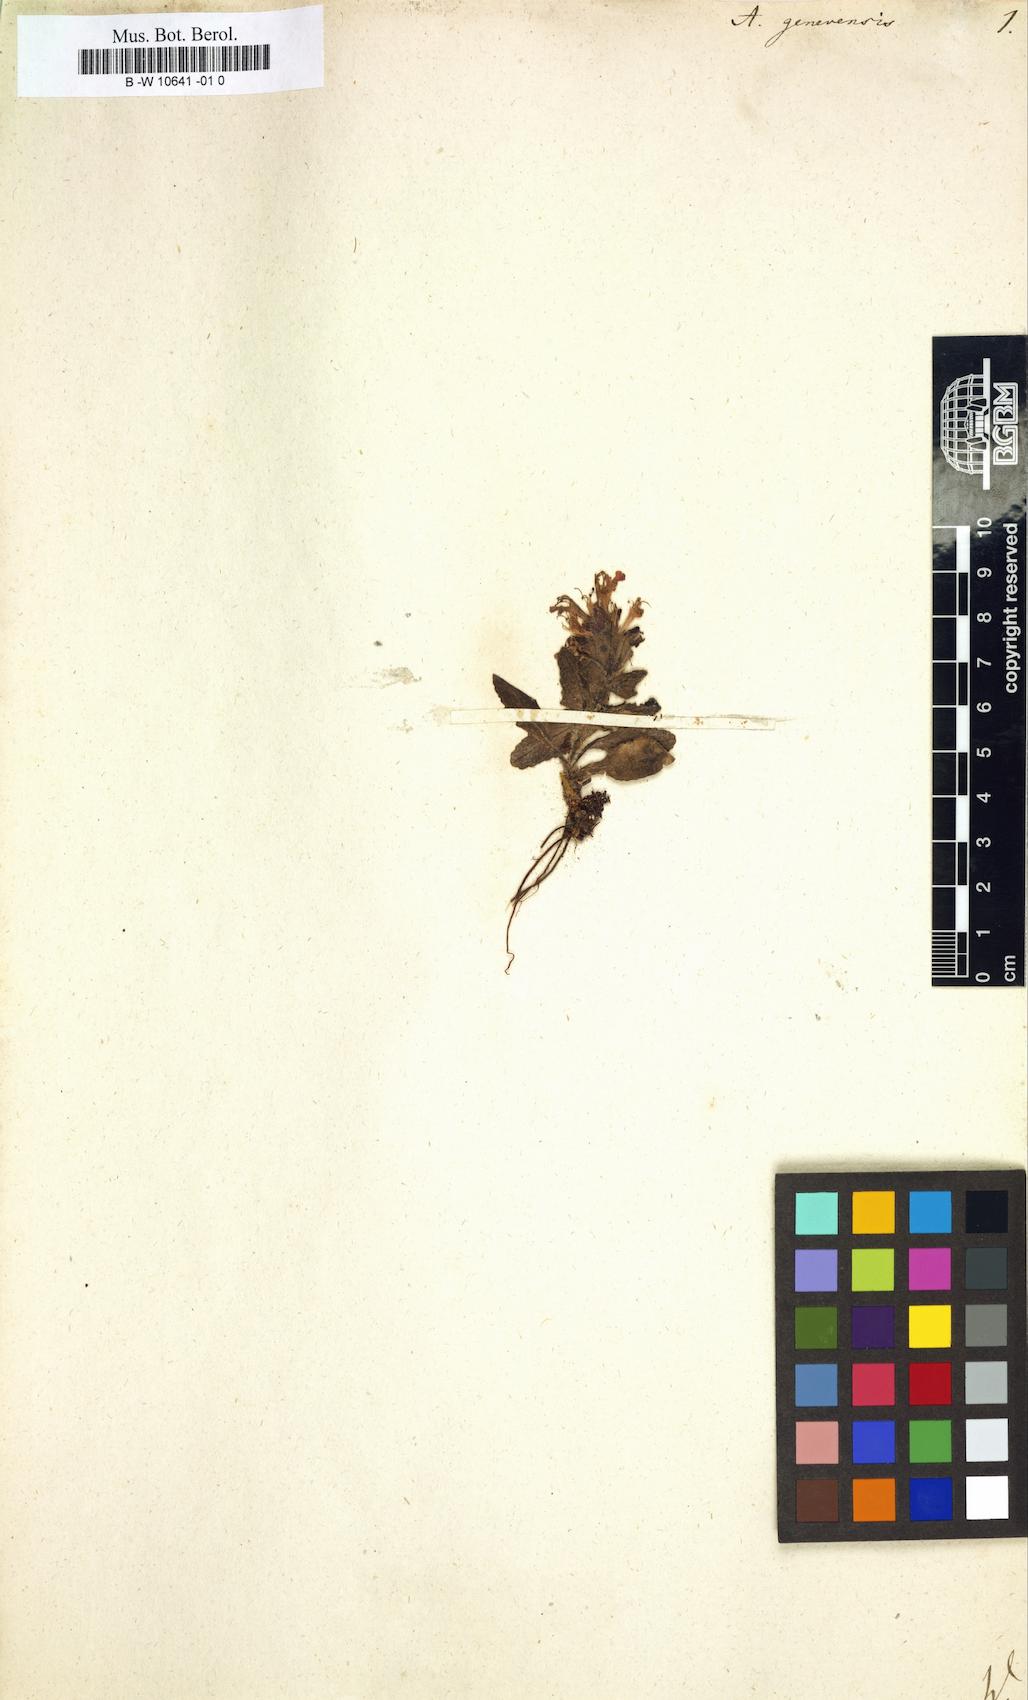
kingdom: Plantae
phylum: Tracheophyta
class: Magnoliopsida
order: Lamiales
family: Lamiaceae
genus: Ajuga
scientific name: Ajuga genevensis
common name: Blue bugle
